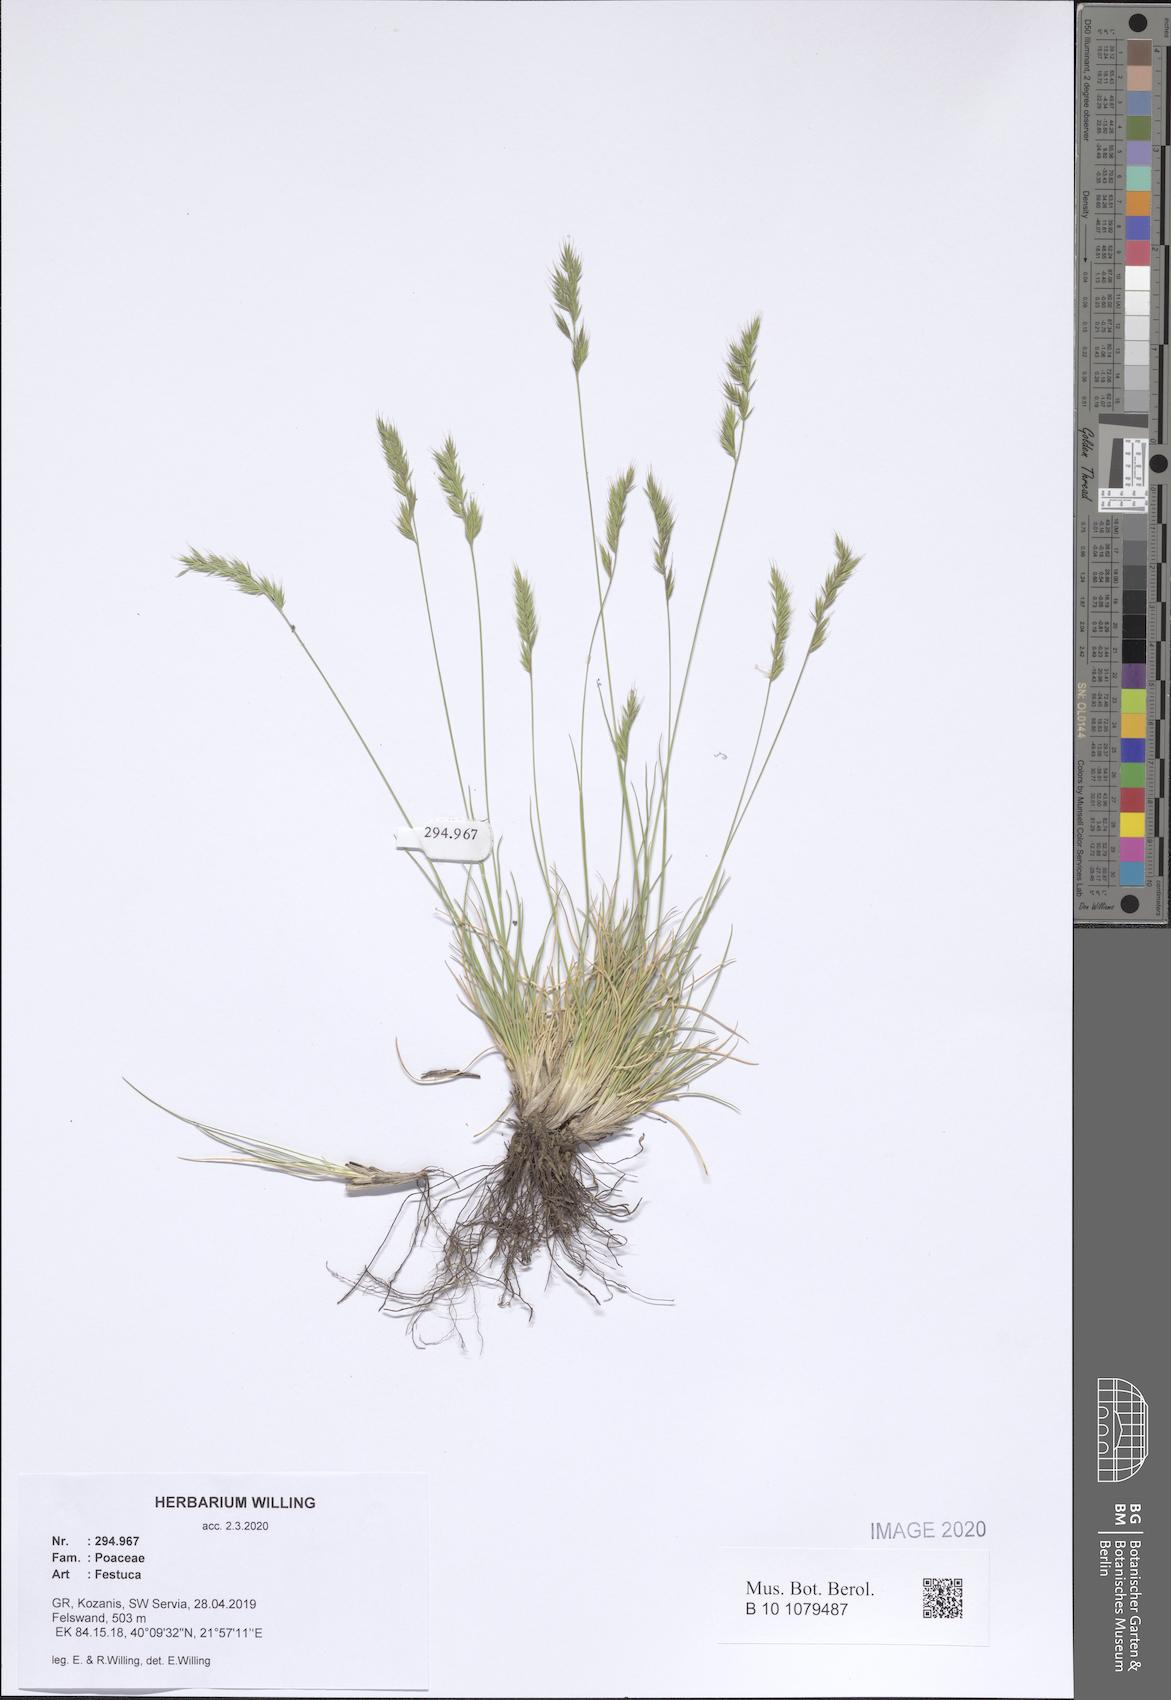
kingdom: Plantae
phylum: Tracheophyta
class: Liliopsida
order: Poales
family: Poaceae
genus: Festuca
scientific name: Festuca
